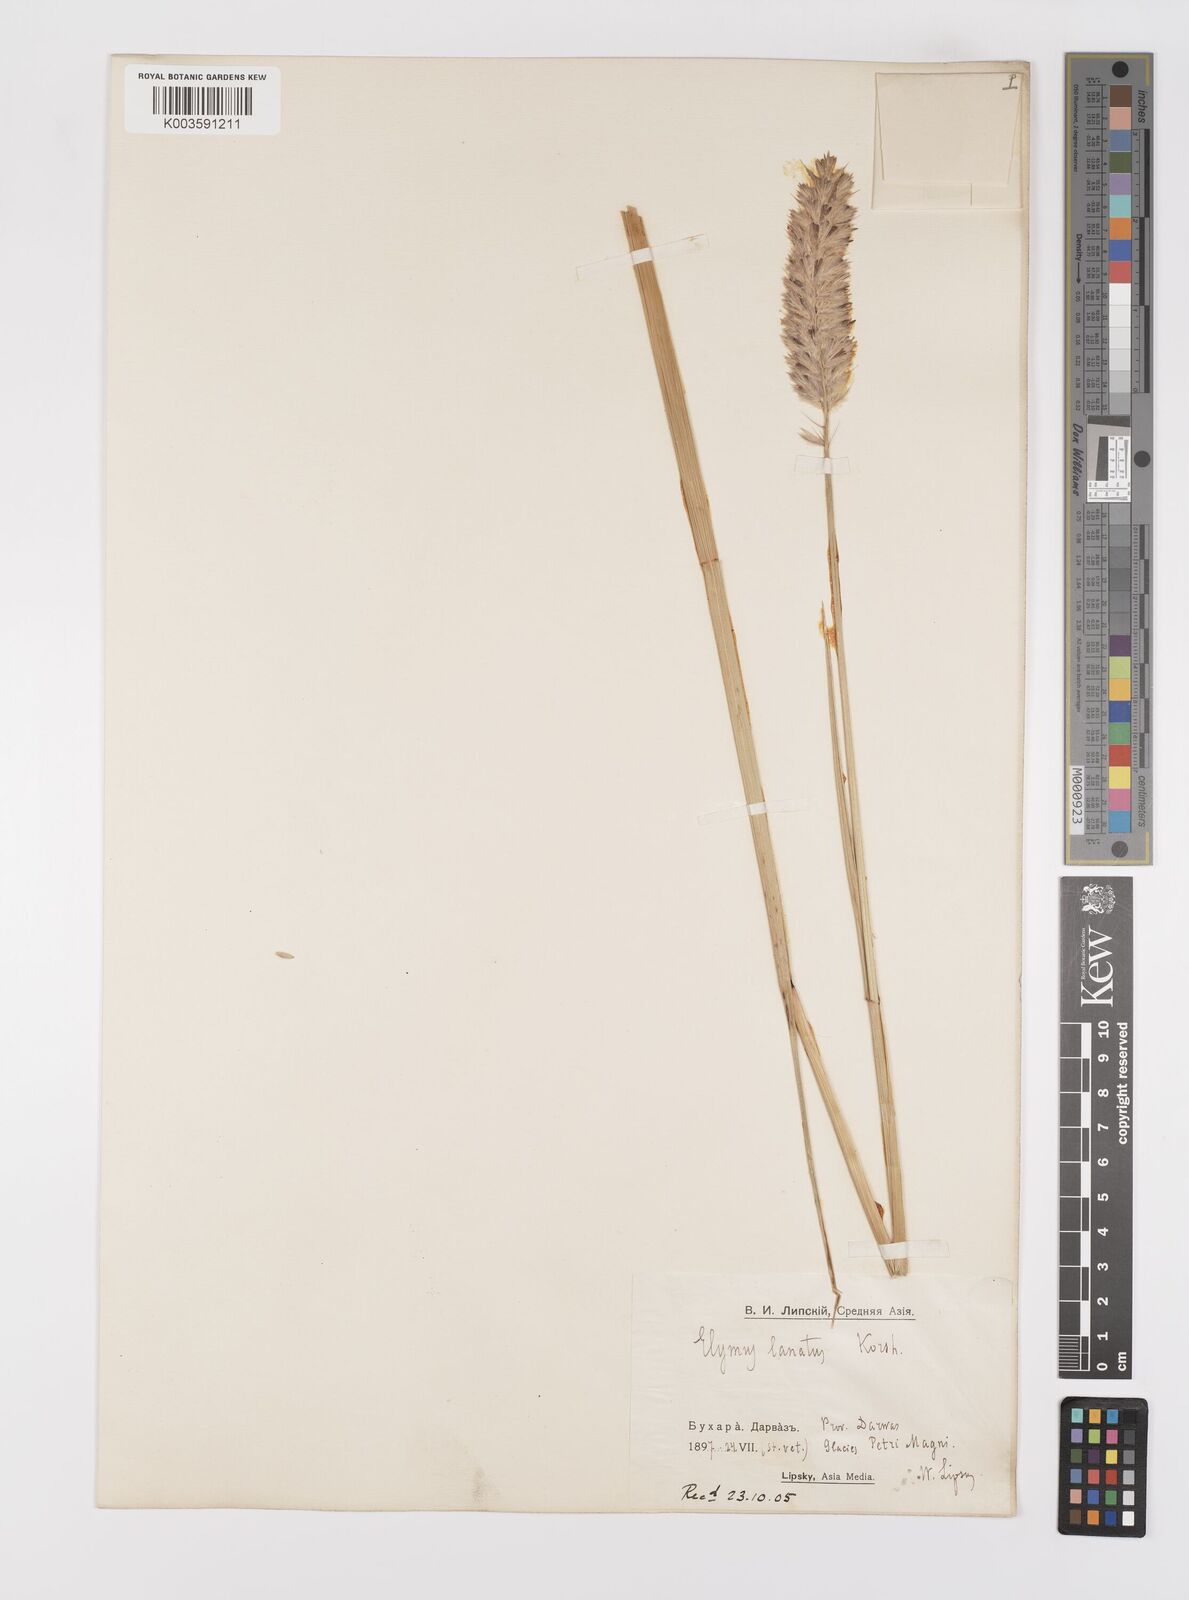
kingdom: Plantae
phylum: Tracheophyta
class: Liliopsida
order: Poales
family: Poaceae
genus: Leymus
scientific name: Leymus lanatus
